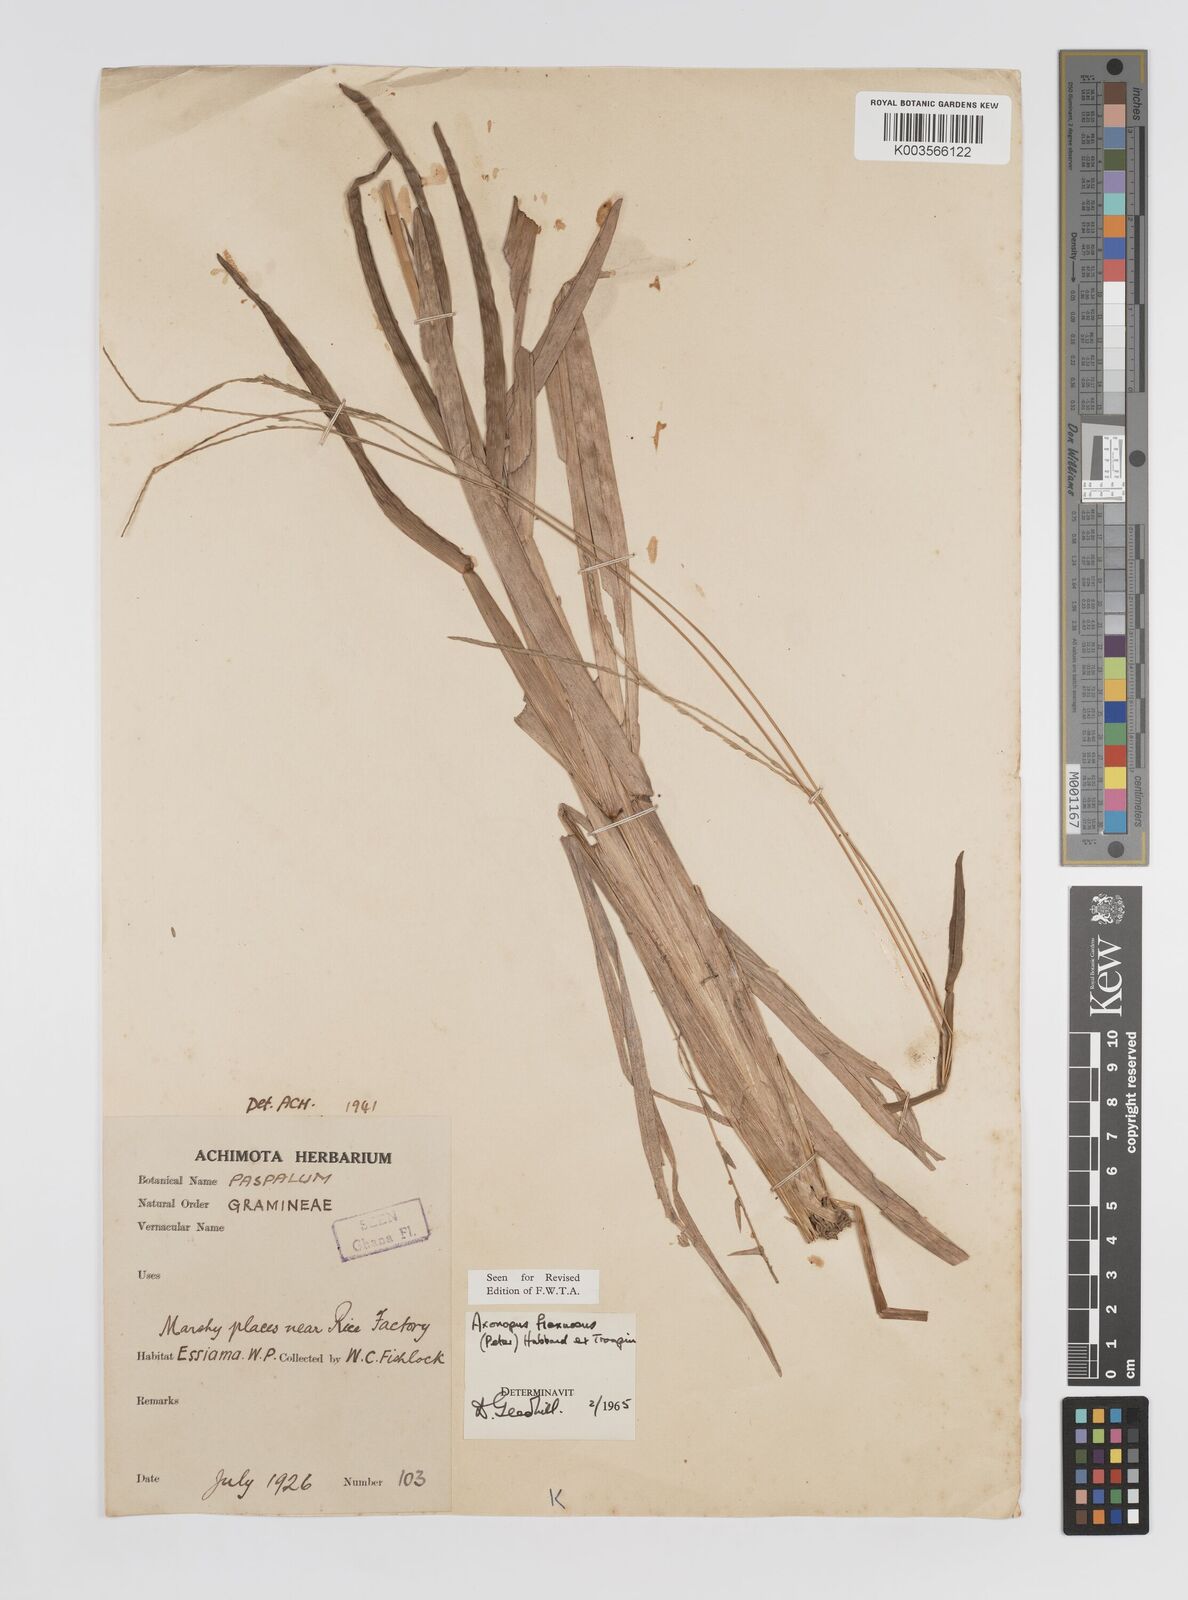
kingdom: Plantae
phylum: Tracheophyta
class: Liliopsida
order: Poales
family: Poaceae
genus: Axonopus
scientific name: Axonopus flexuosus
